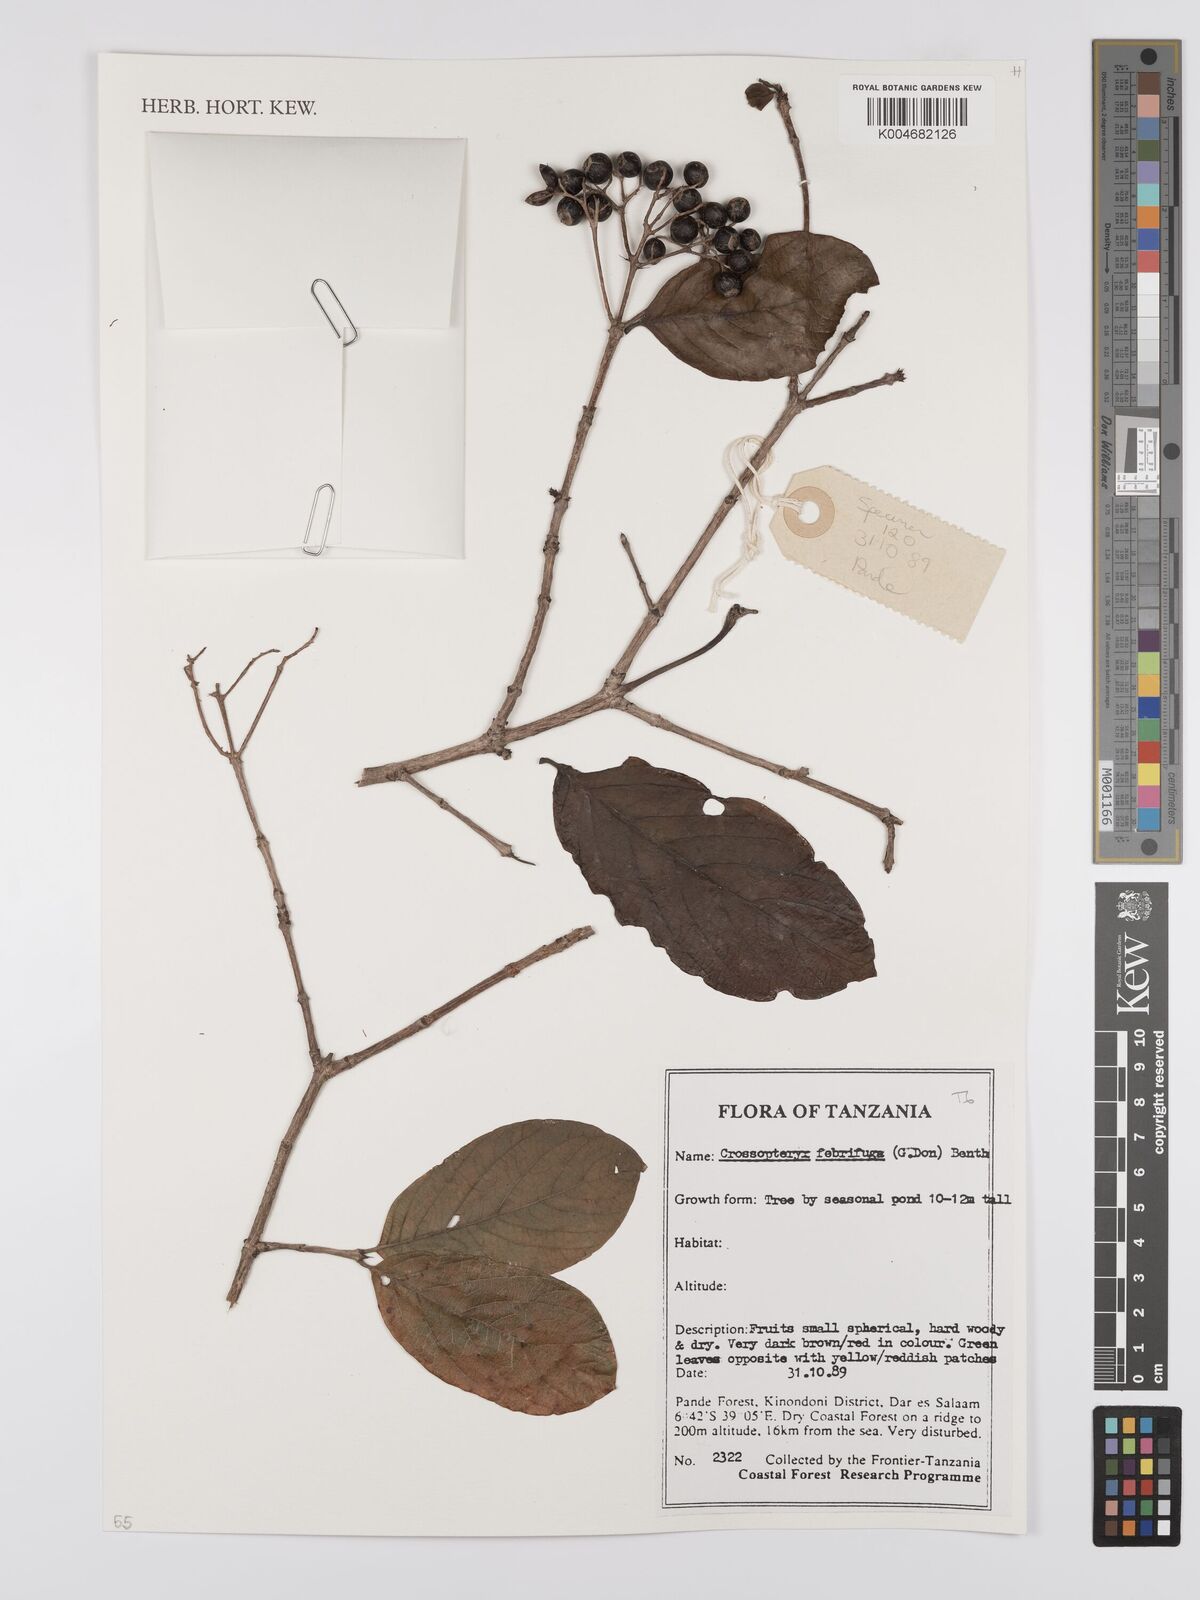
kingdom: Plantae
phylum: Tracheophyta
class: Magnoliopsida
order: Gentianales
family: Rubiaceae
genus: Crossopteryx
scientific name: Crossopteryx febrifuga
